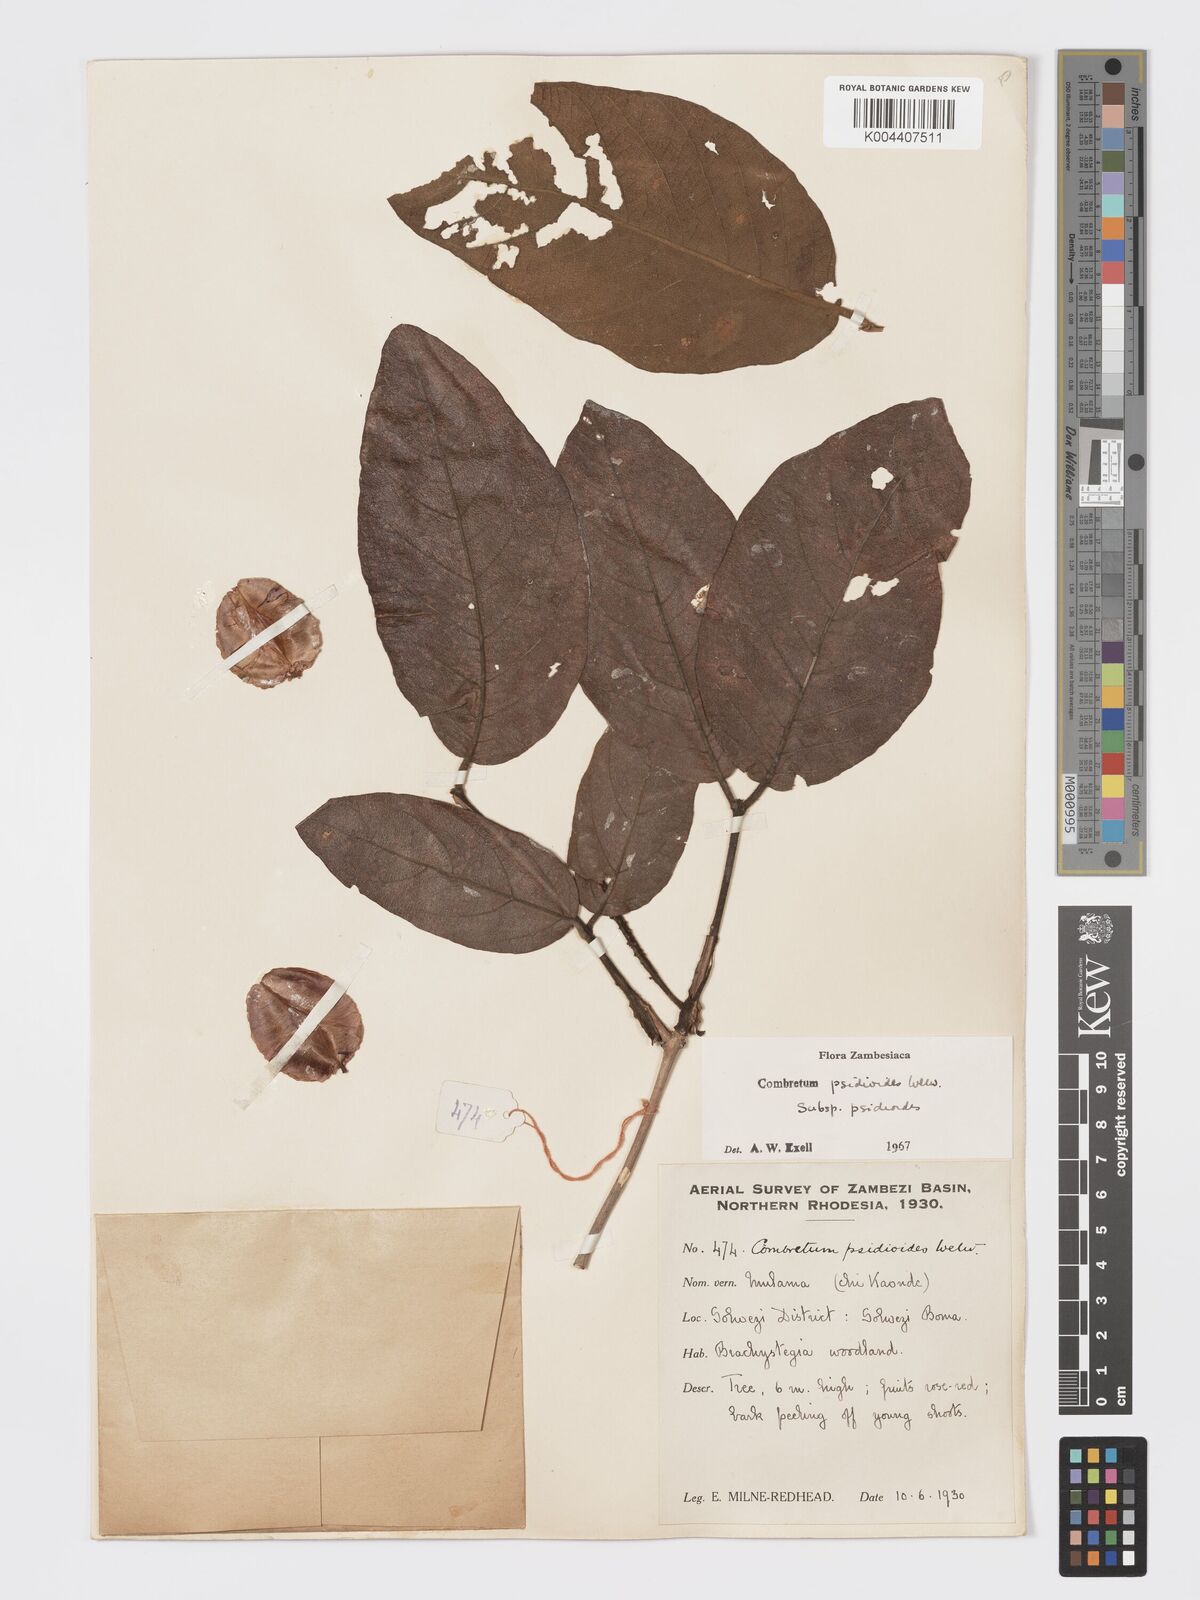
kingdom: Plantae
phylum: Tracheophyta
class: Magnoliopsida
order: Myrtales
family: Combretaceae
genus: Combretum
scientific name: Combretum psidioides
